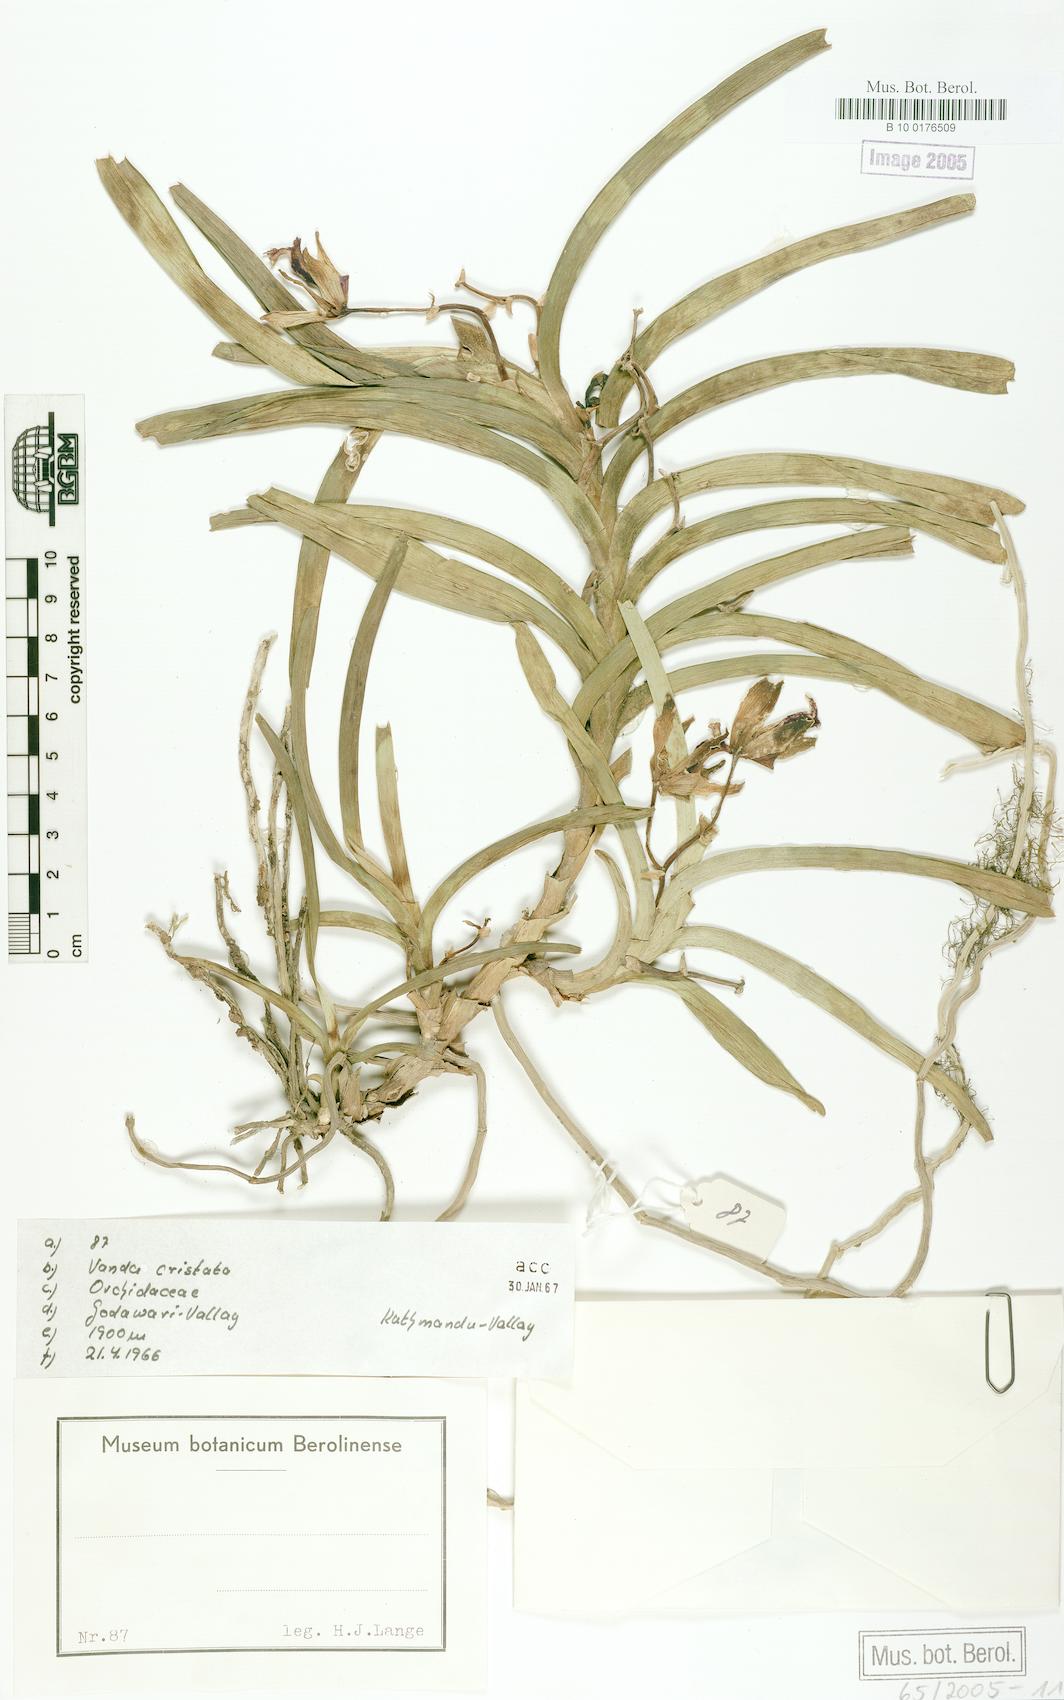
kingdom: Plantae
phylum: Tracheophyta
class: Liliopsida
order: Asparagales
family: Orchidaceae
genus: Vanda
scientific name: Vanda cristata
